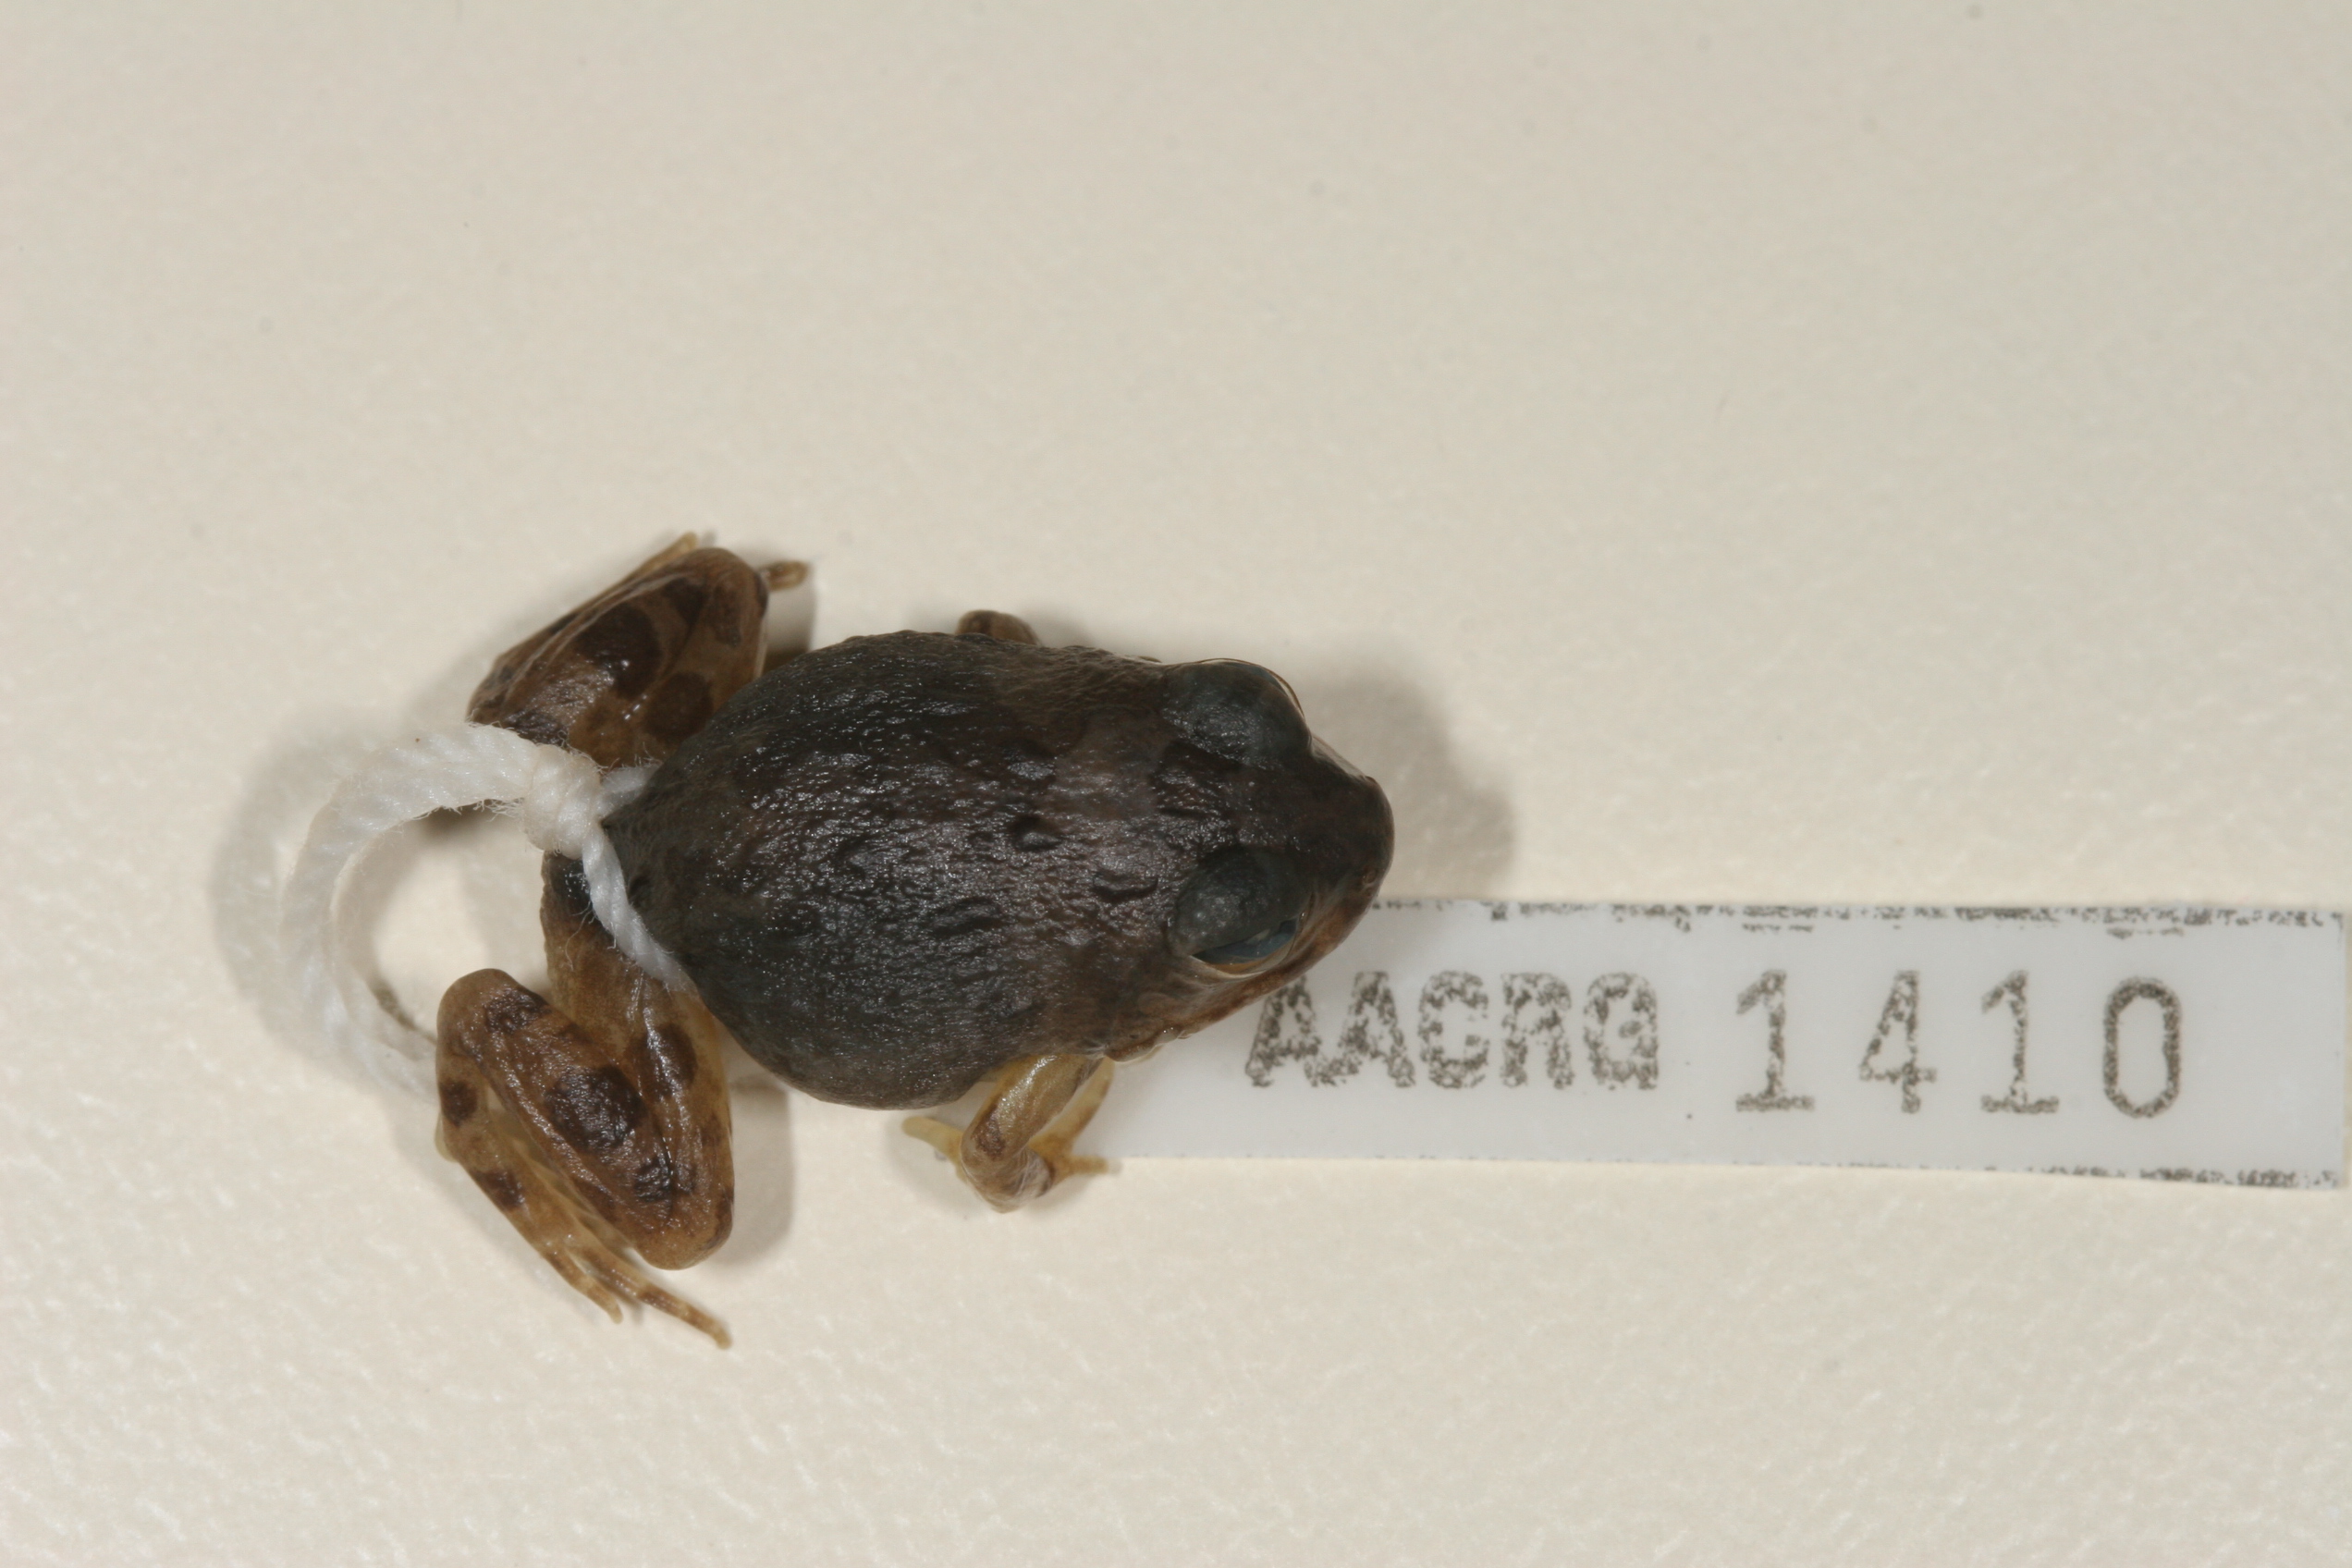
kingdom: Animalia
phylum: Chordata
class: Amphibia
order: Anura
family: Pyxicephalidae
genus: Tomopterna
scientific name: Tomopterna cryptotis
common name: Catequero bullfrog
